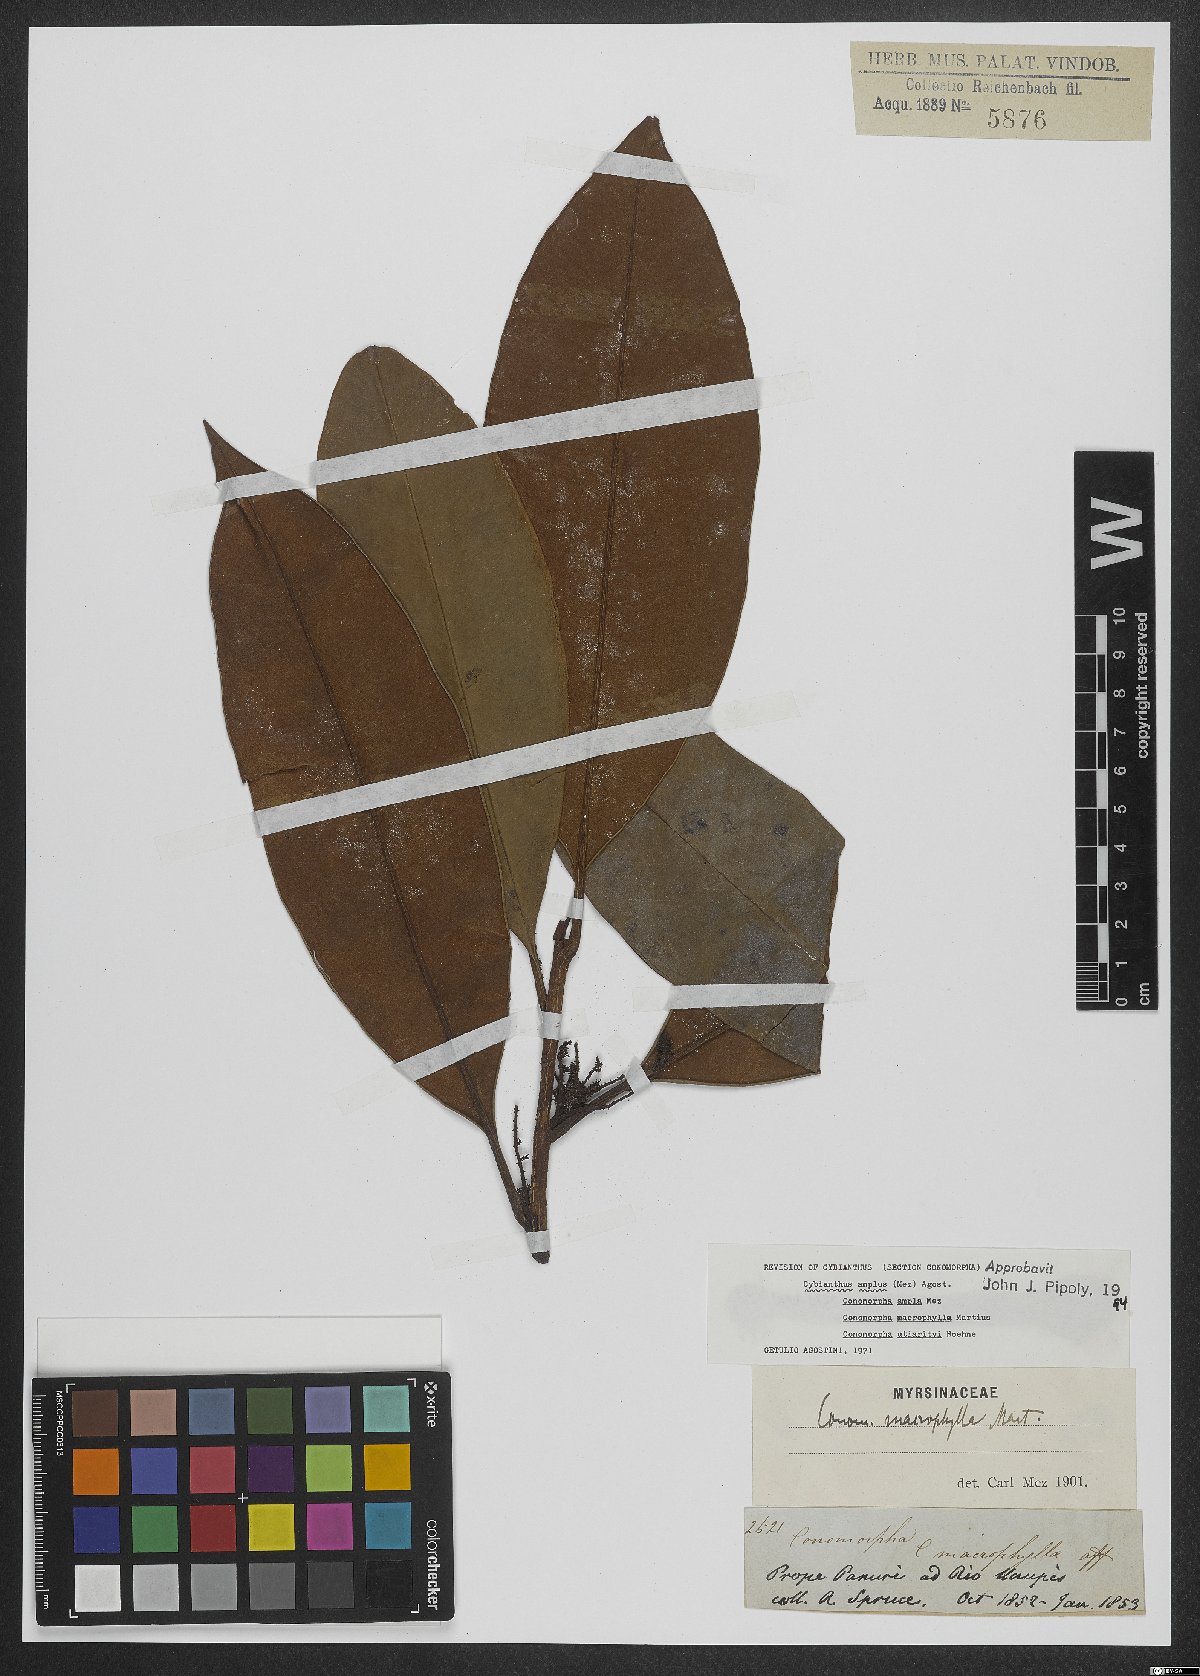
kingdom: Plantae
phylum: Tracheophyta
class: Magnoliopsida
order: Ericales
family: Primulaceae
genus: Cybianthus
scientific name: Cybianthus amplus
